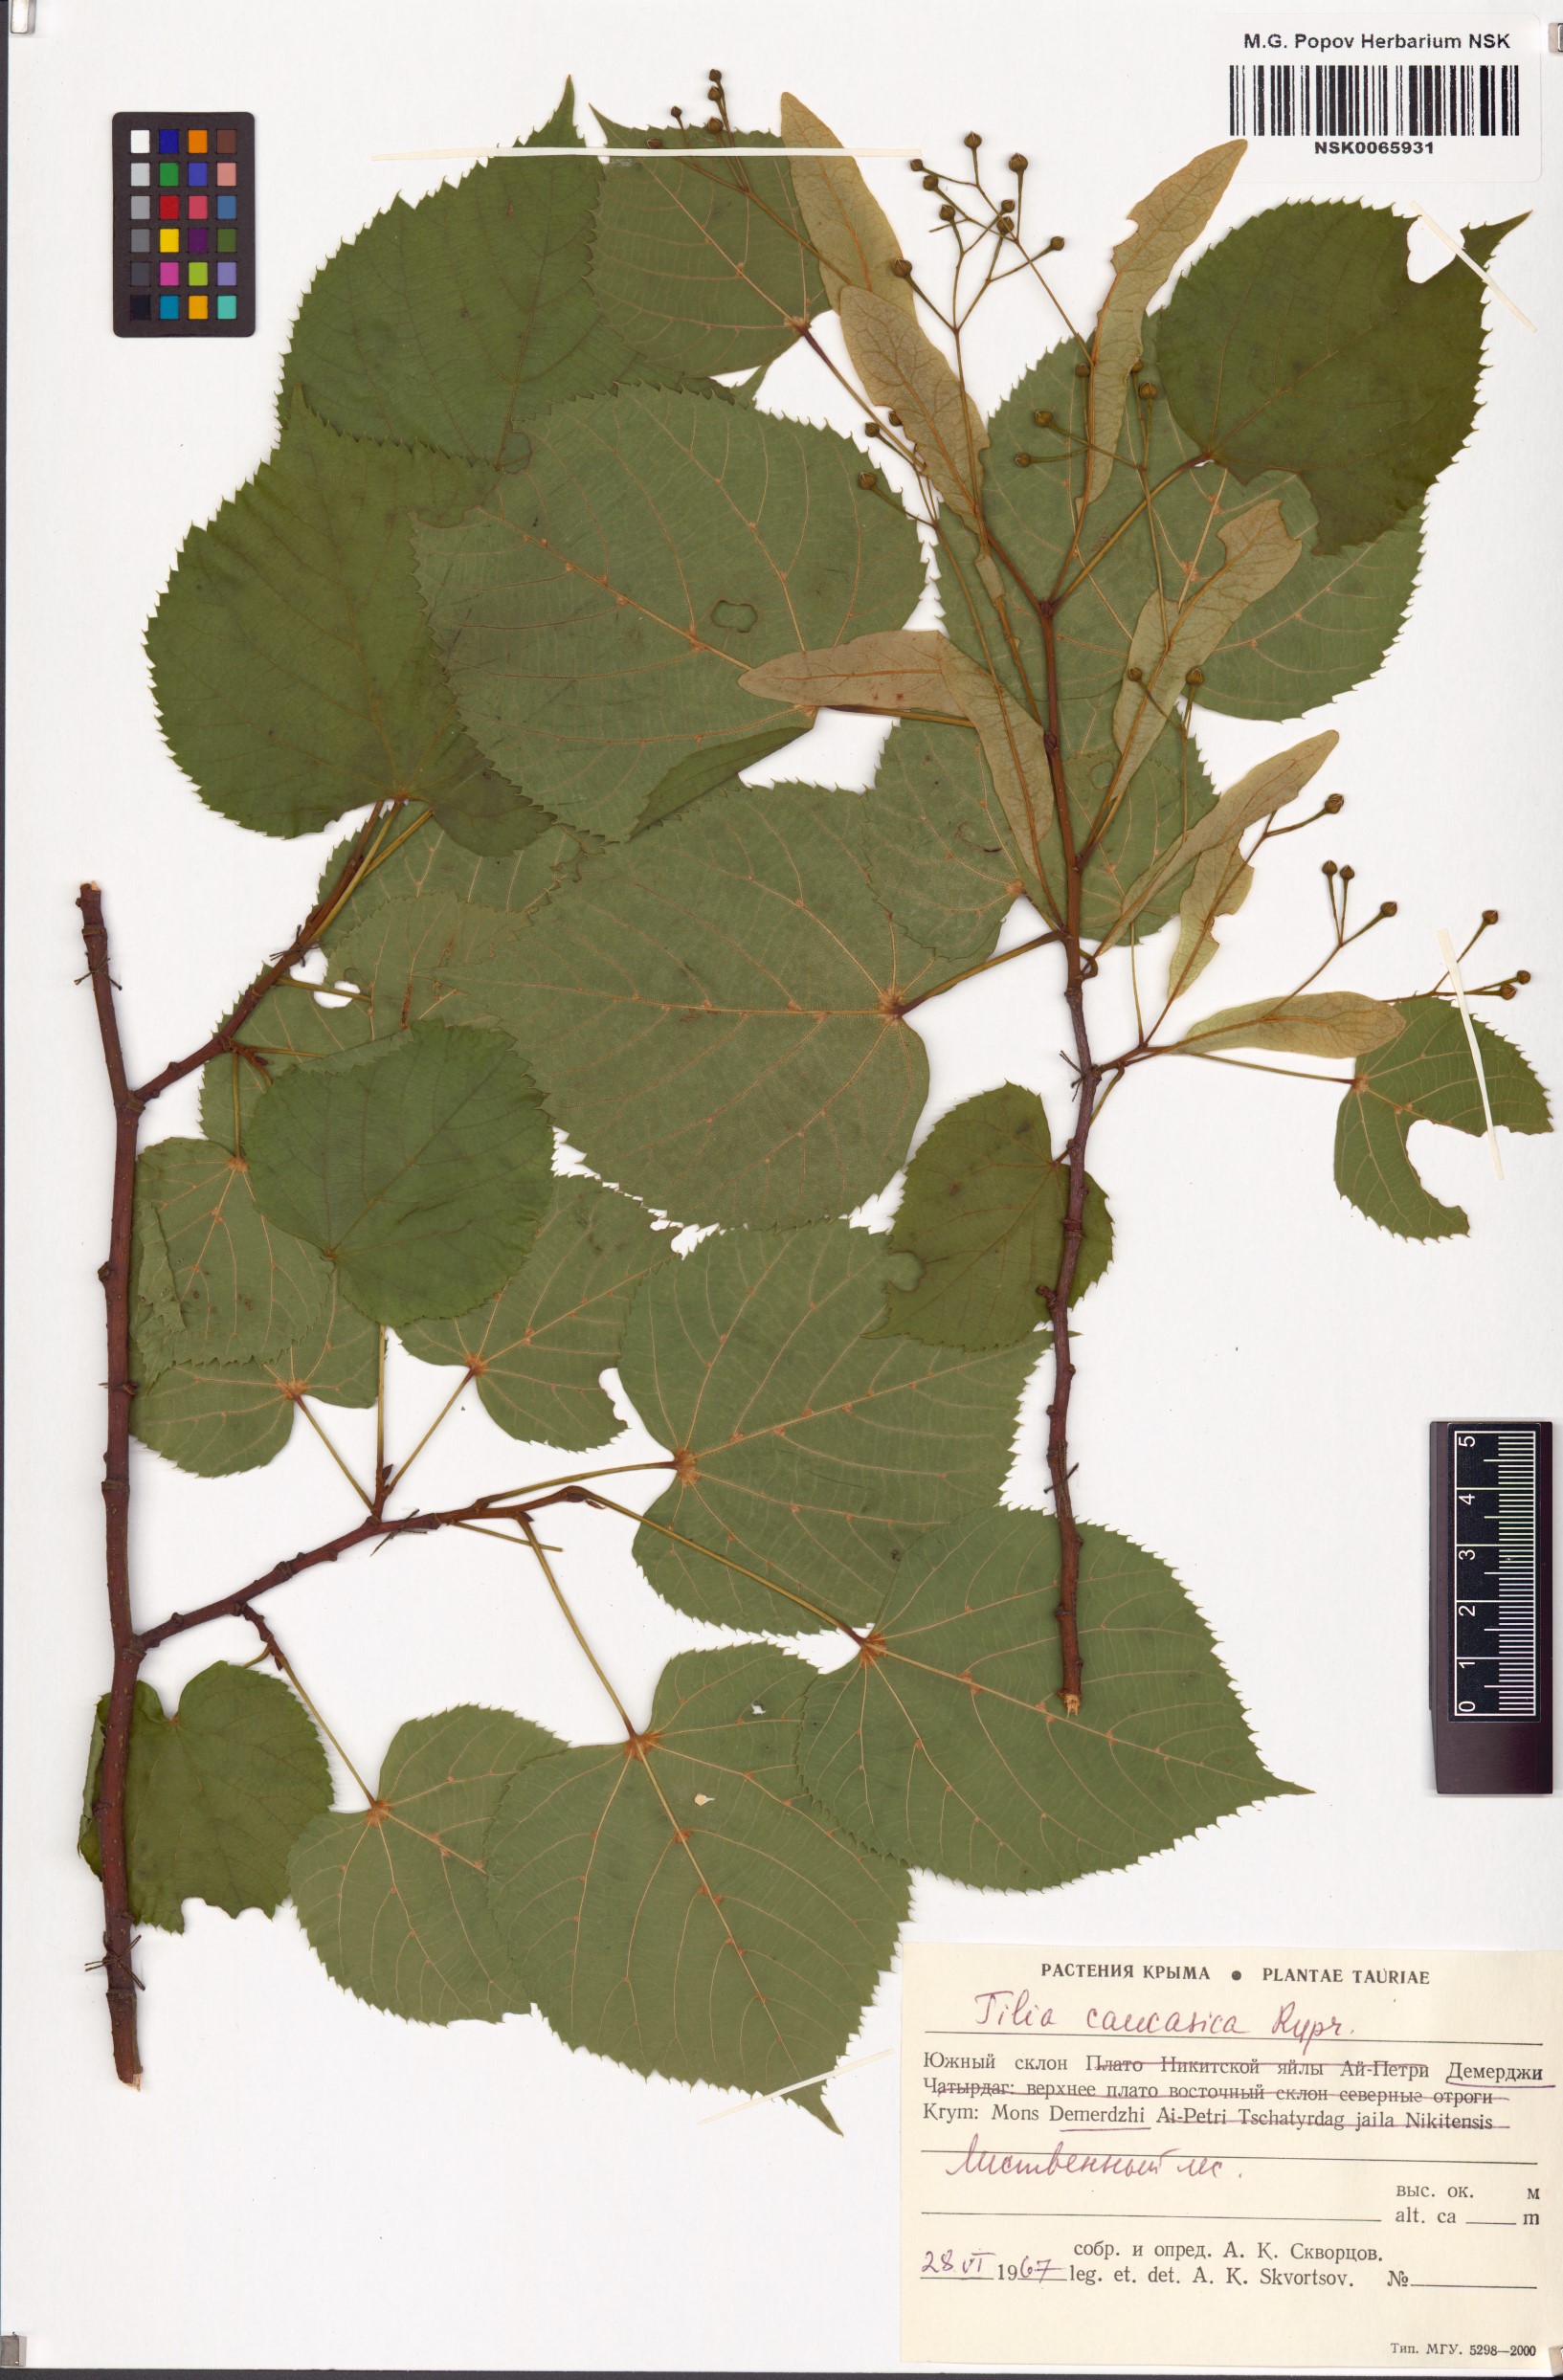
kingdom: Plantae
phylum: Tracheophyta
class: Magnoliopsida
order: Malvales
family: Malvaceae
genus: Tilia
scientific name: Tilia dasystyla
